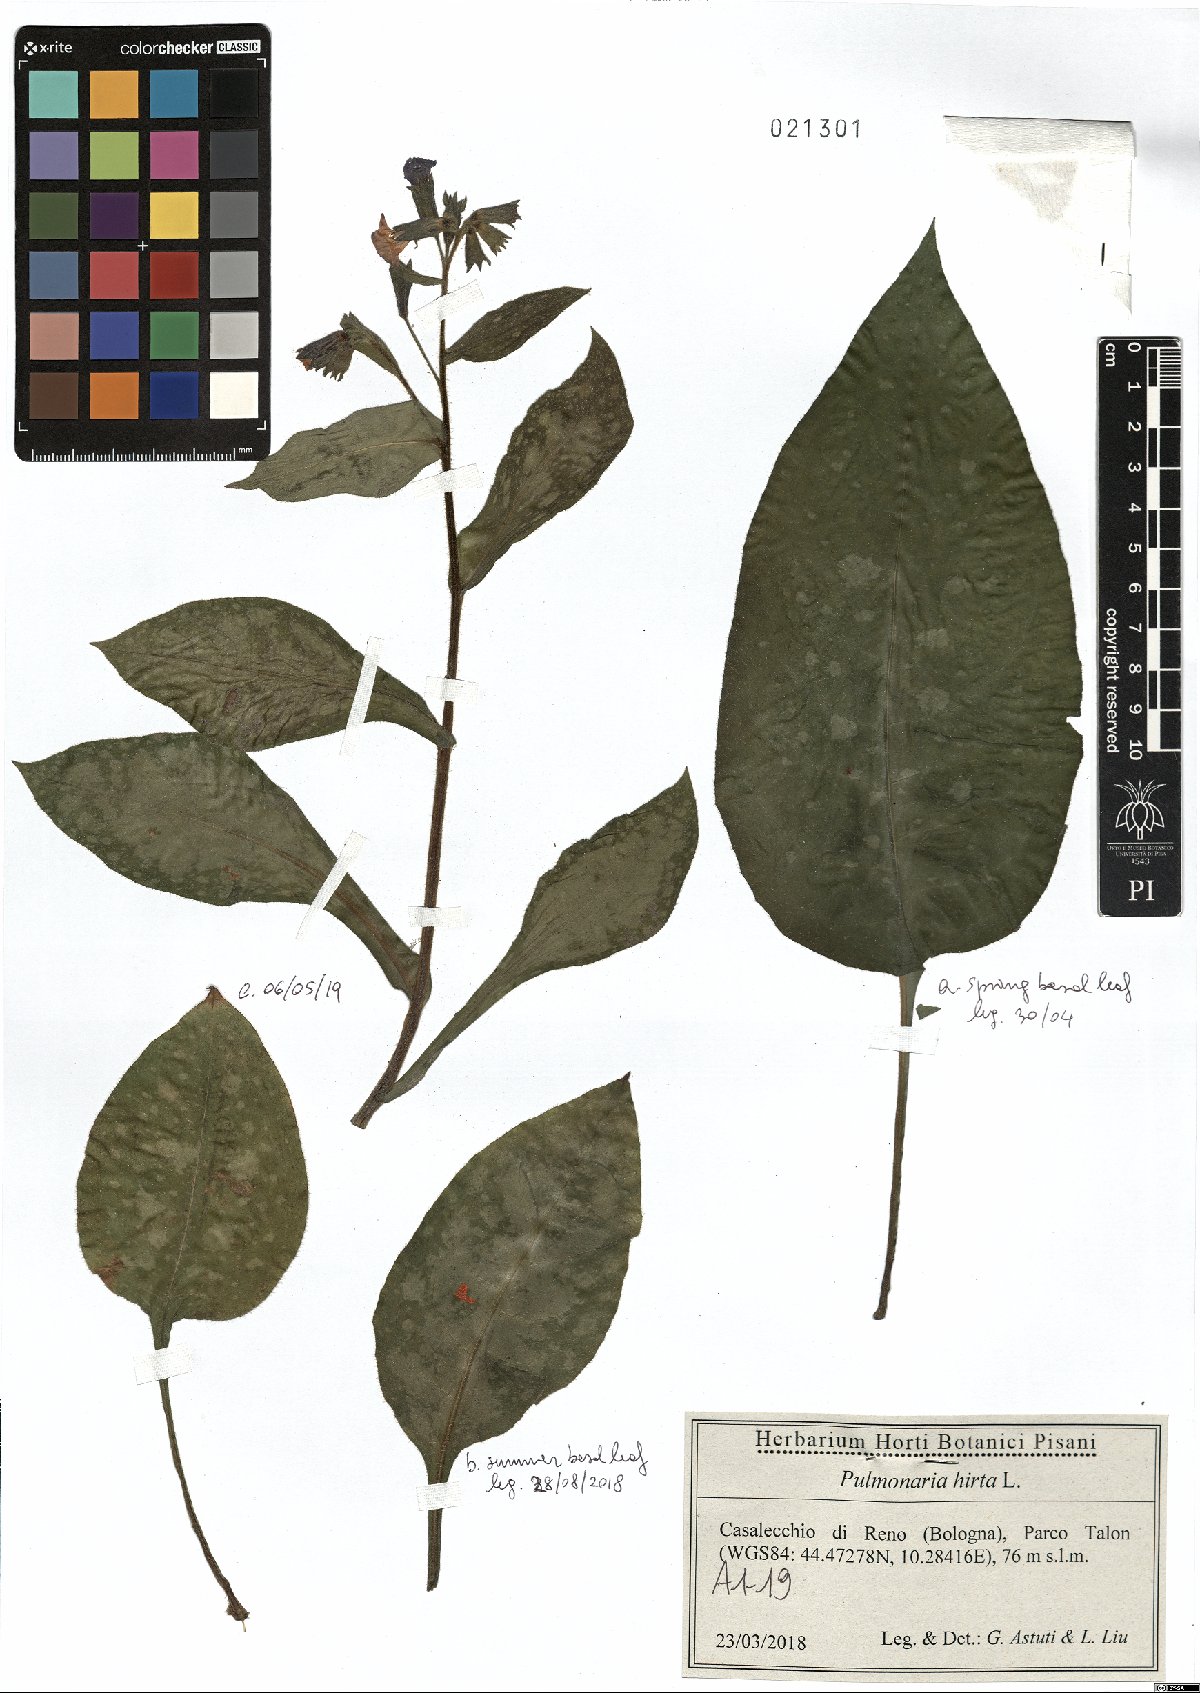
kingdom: Plantae
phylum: Tracheophyta
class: Magnoliopsida
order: Boraginales
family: Boraginaceae
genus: Pulmonaria
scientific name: Pulmonaria hirta
